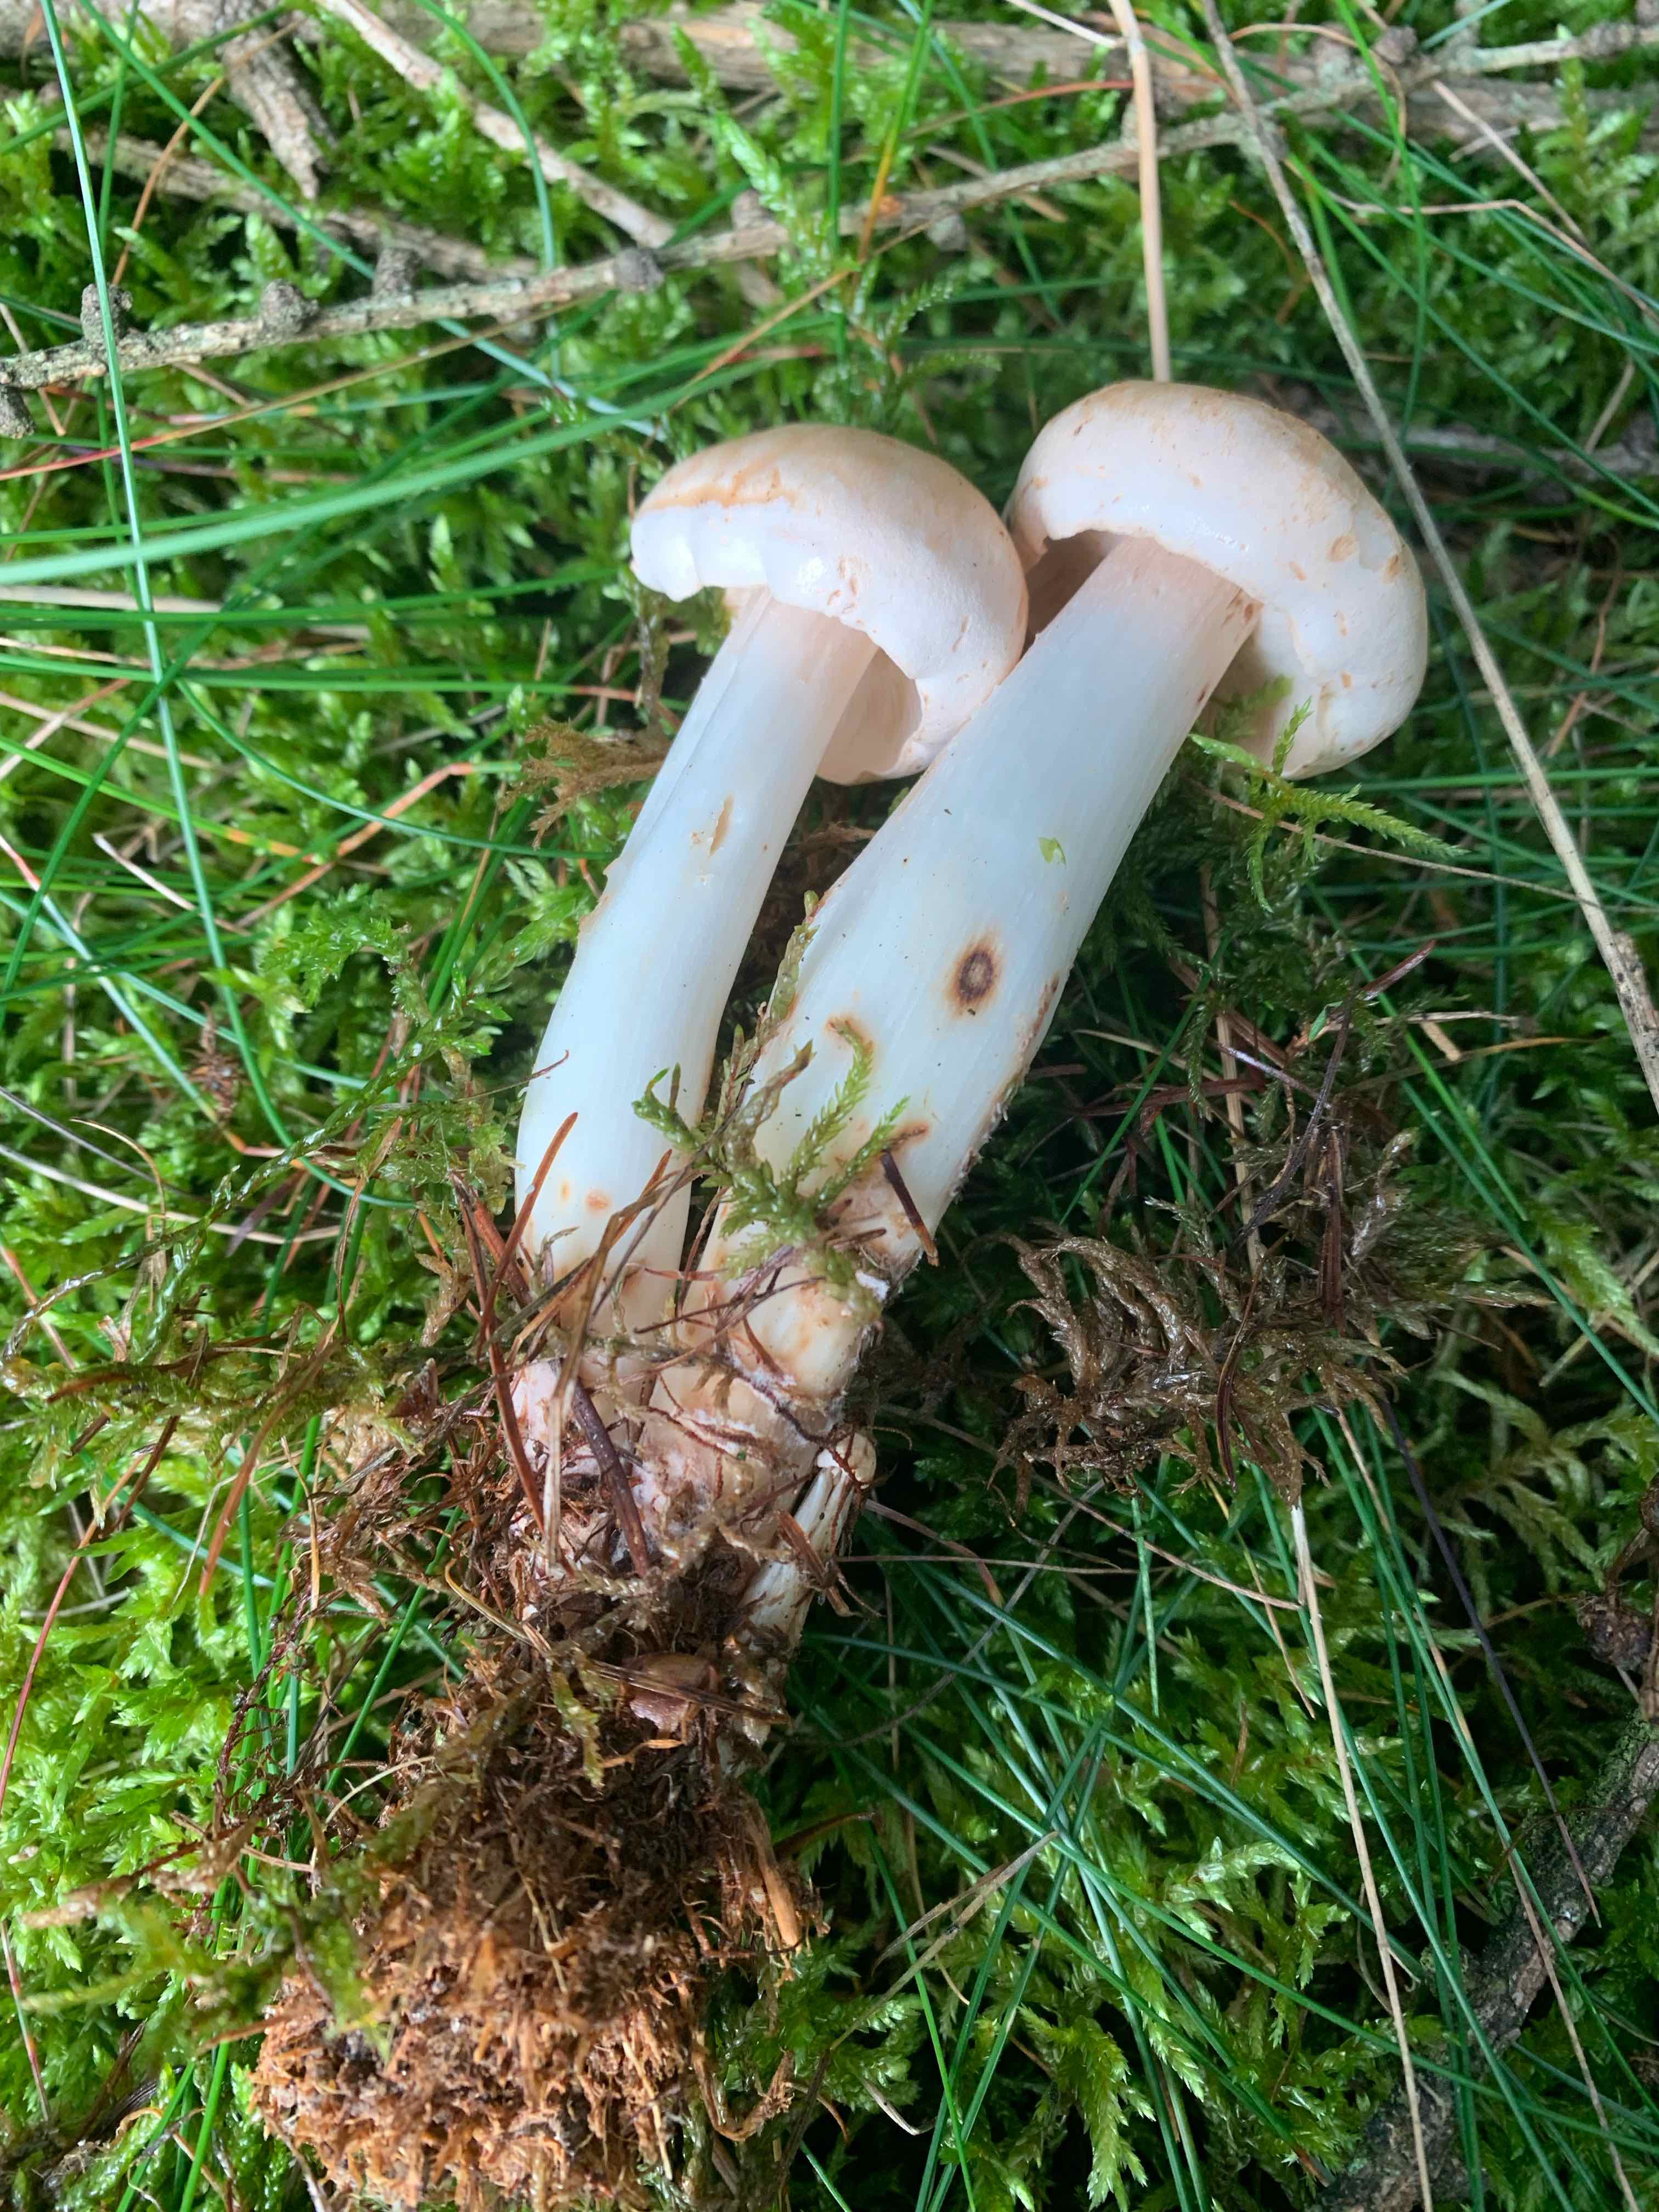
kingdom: Fungi
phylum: Basidiomycota
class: Agaricomycetes
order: Agaricales
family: Omphalotaceae
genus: Rhodocollybia
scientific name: Rhodocollybia maculata
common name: plettet fladhat
